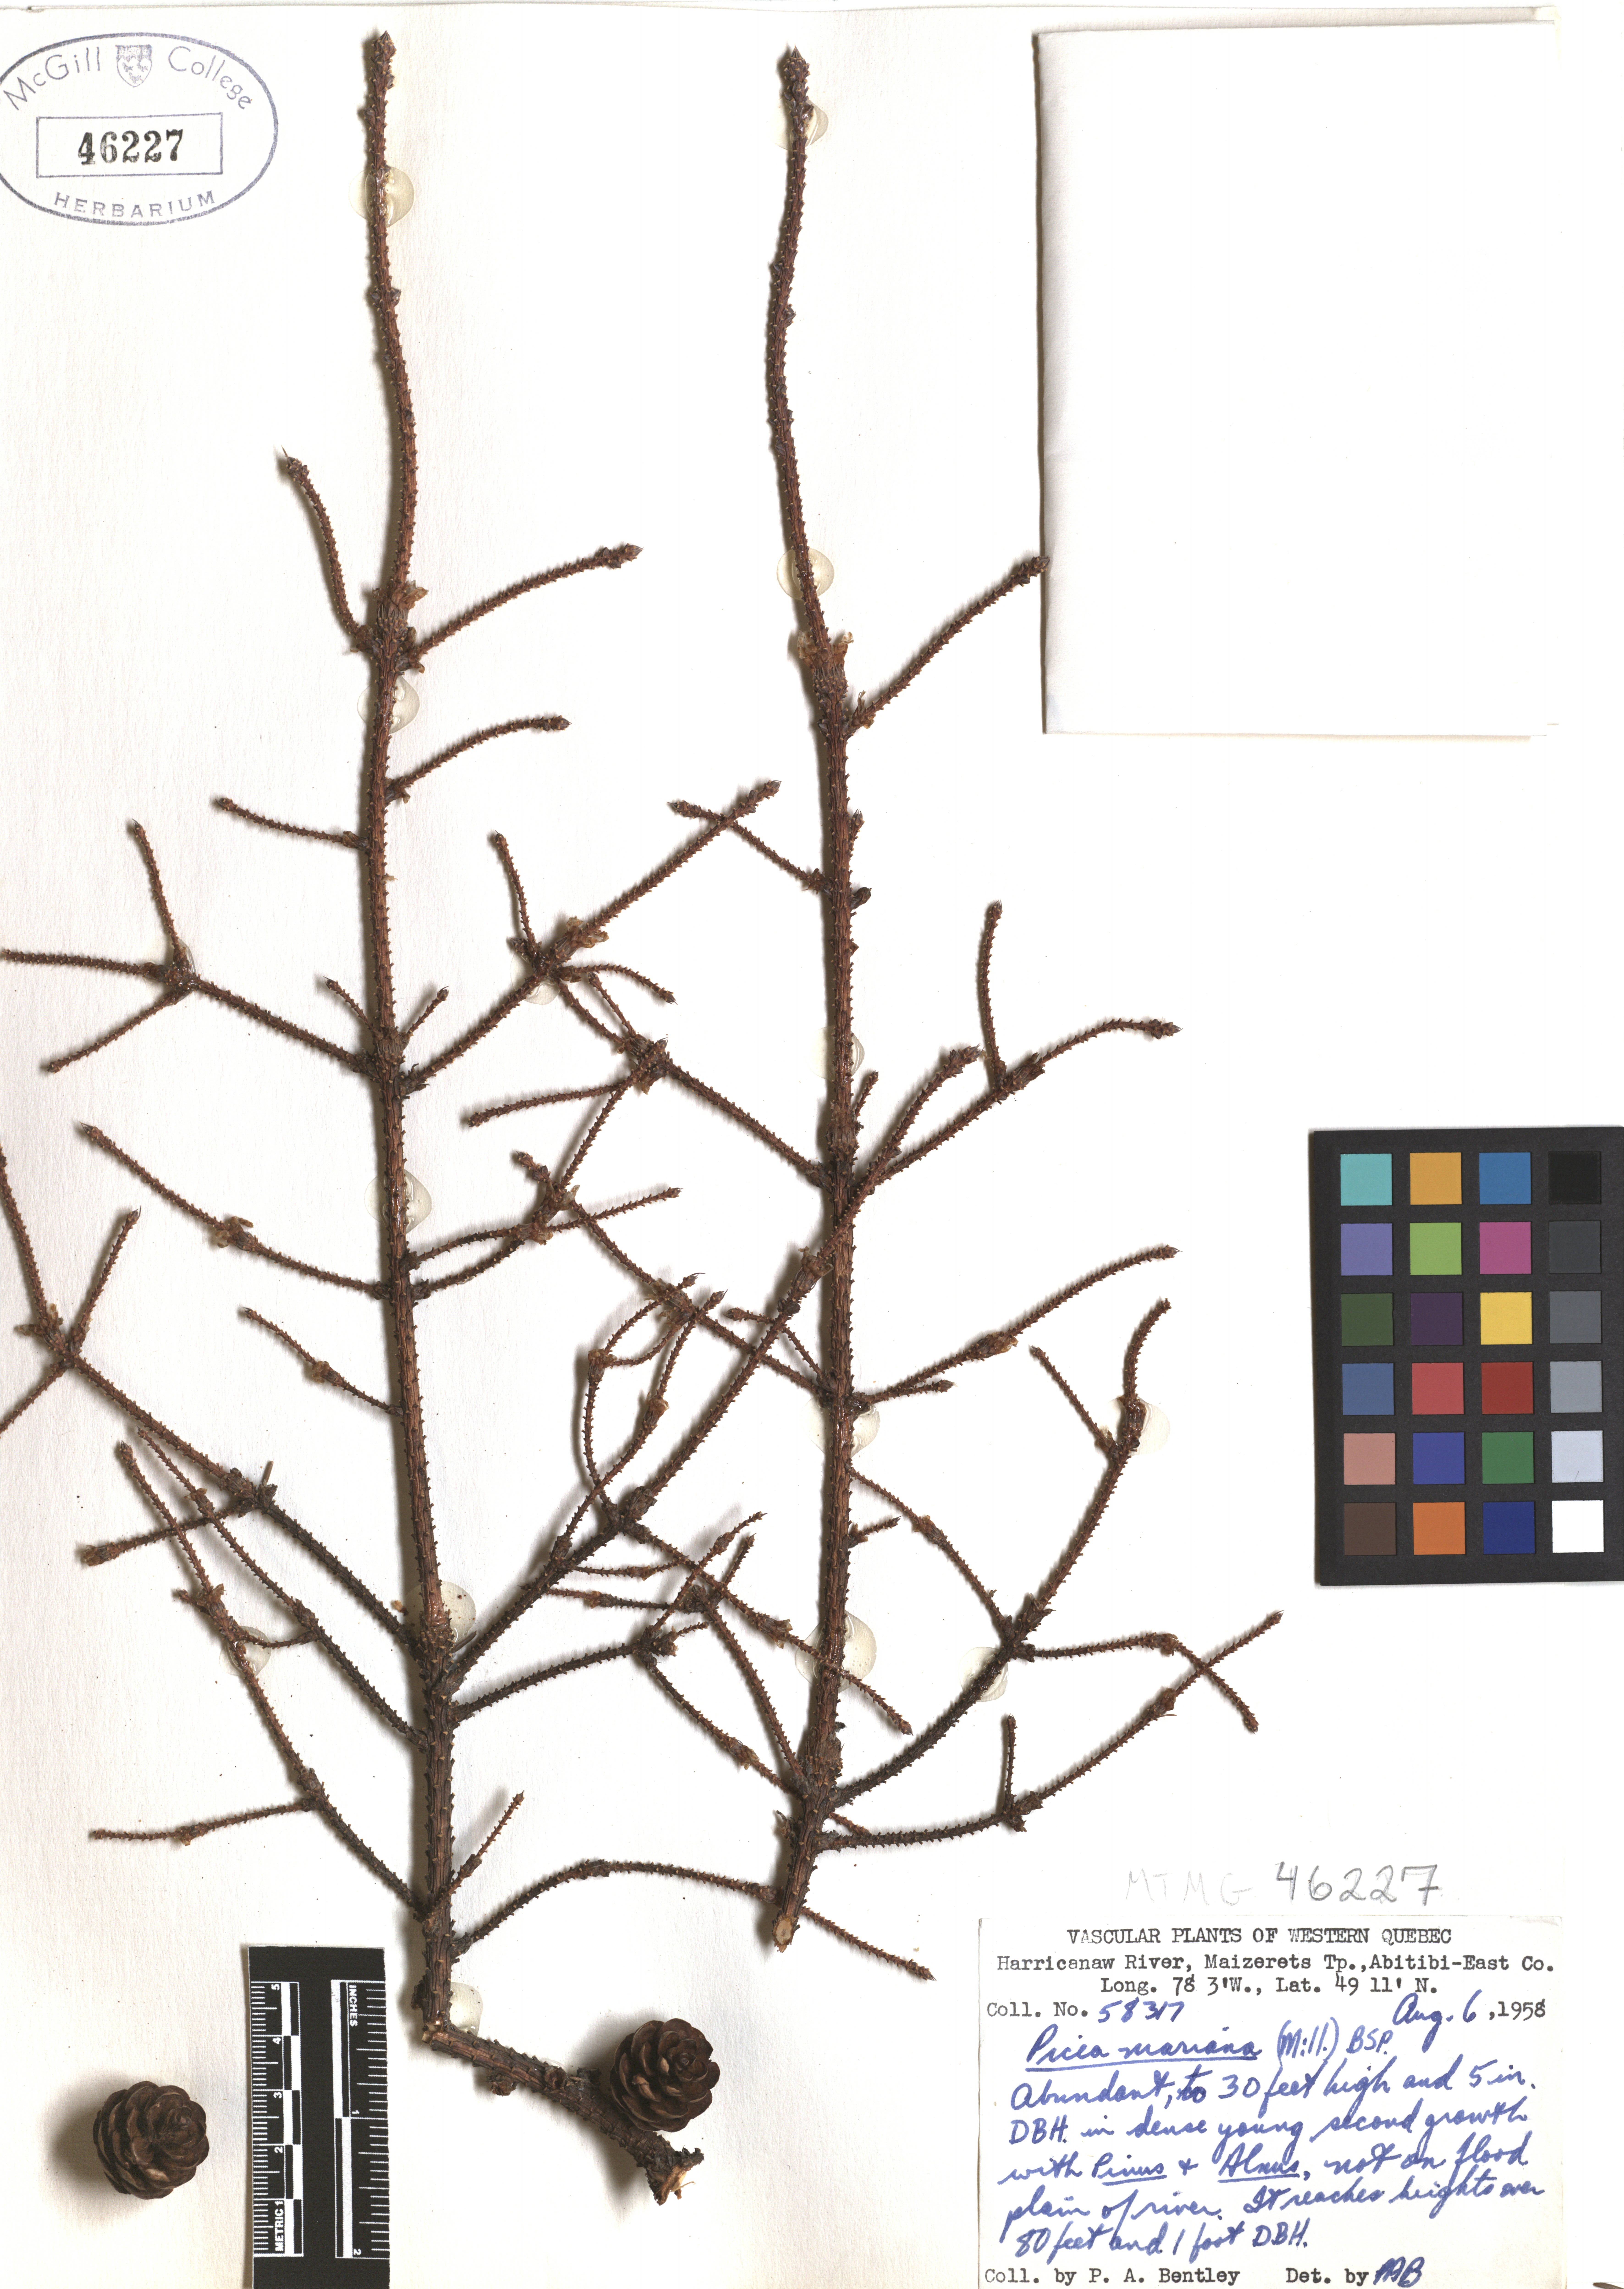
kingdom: Plantae
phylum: Tracheophyta
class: Pinopsida
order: Pinales
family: Pinaceae
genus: Picea
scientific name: Picea mariana
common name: Black spruce
